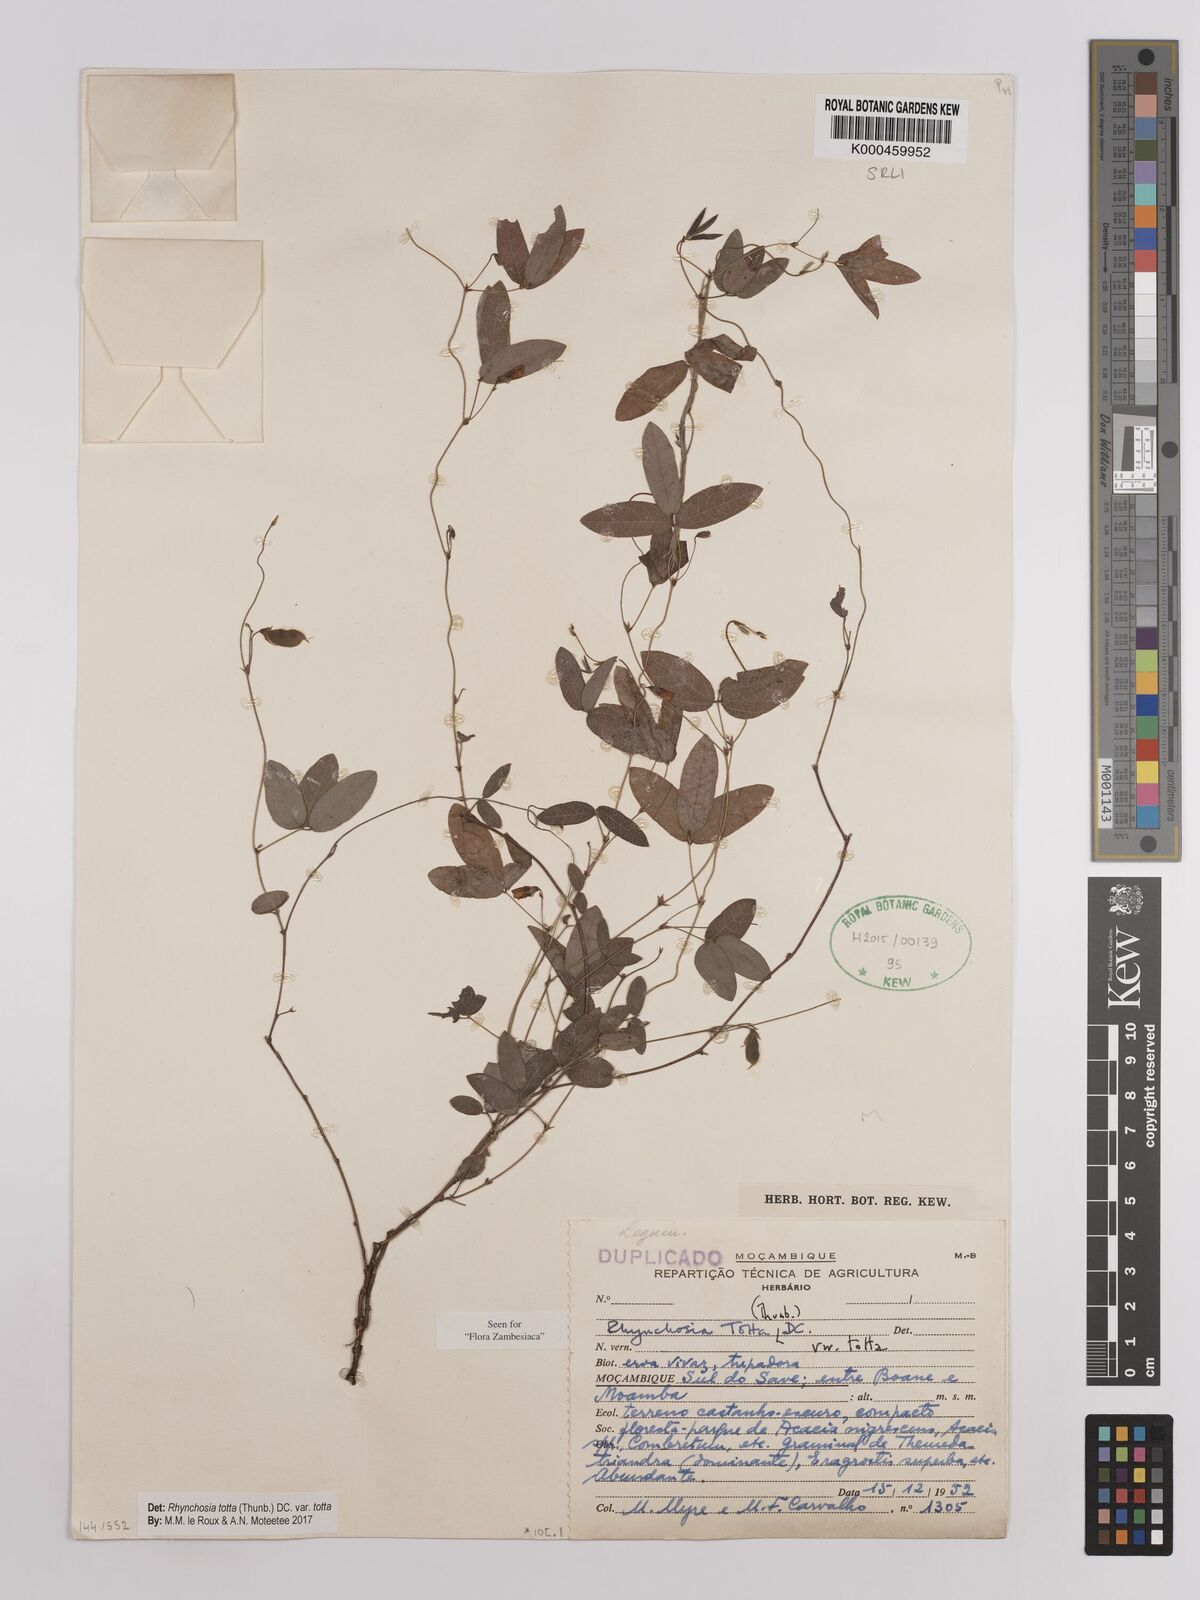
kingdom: Plantae
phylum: Tracheophyta
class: Magnoliopsida
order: Fabales
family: Fabaceae
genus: Rhynchosia
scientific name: Rhynchosia totta
